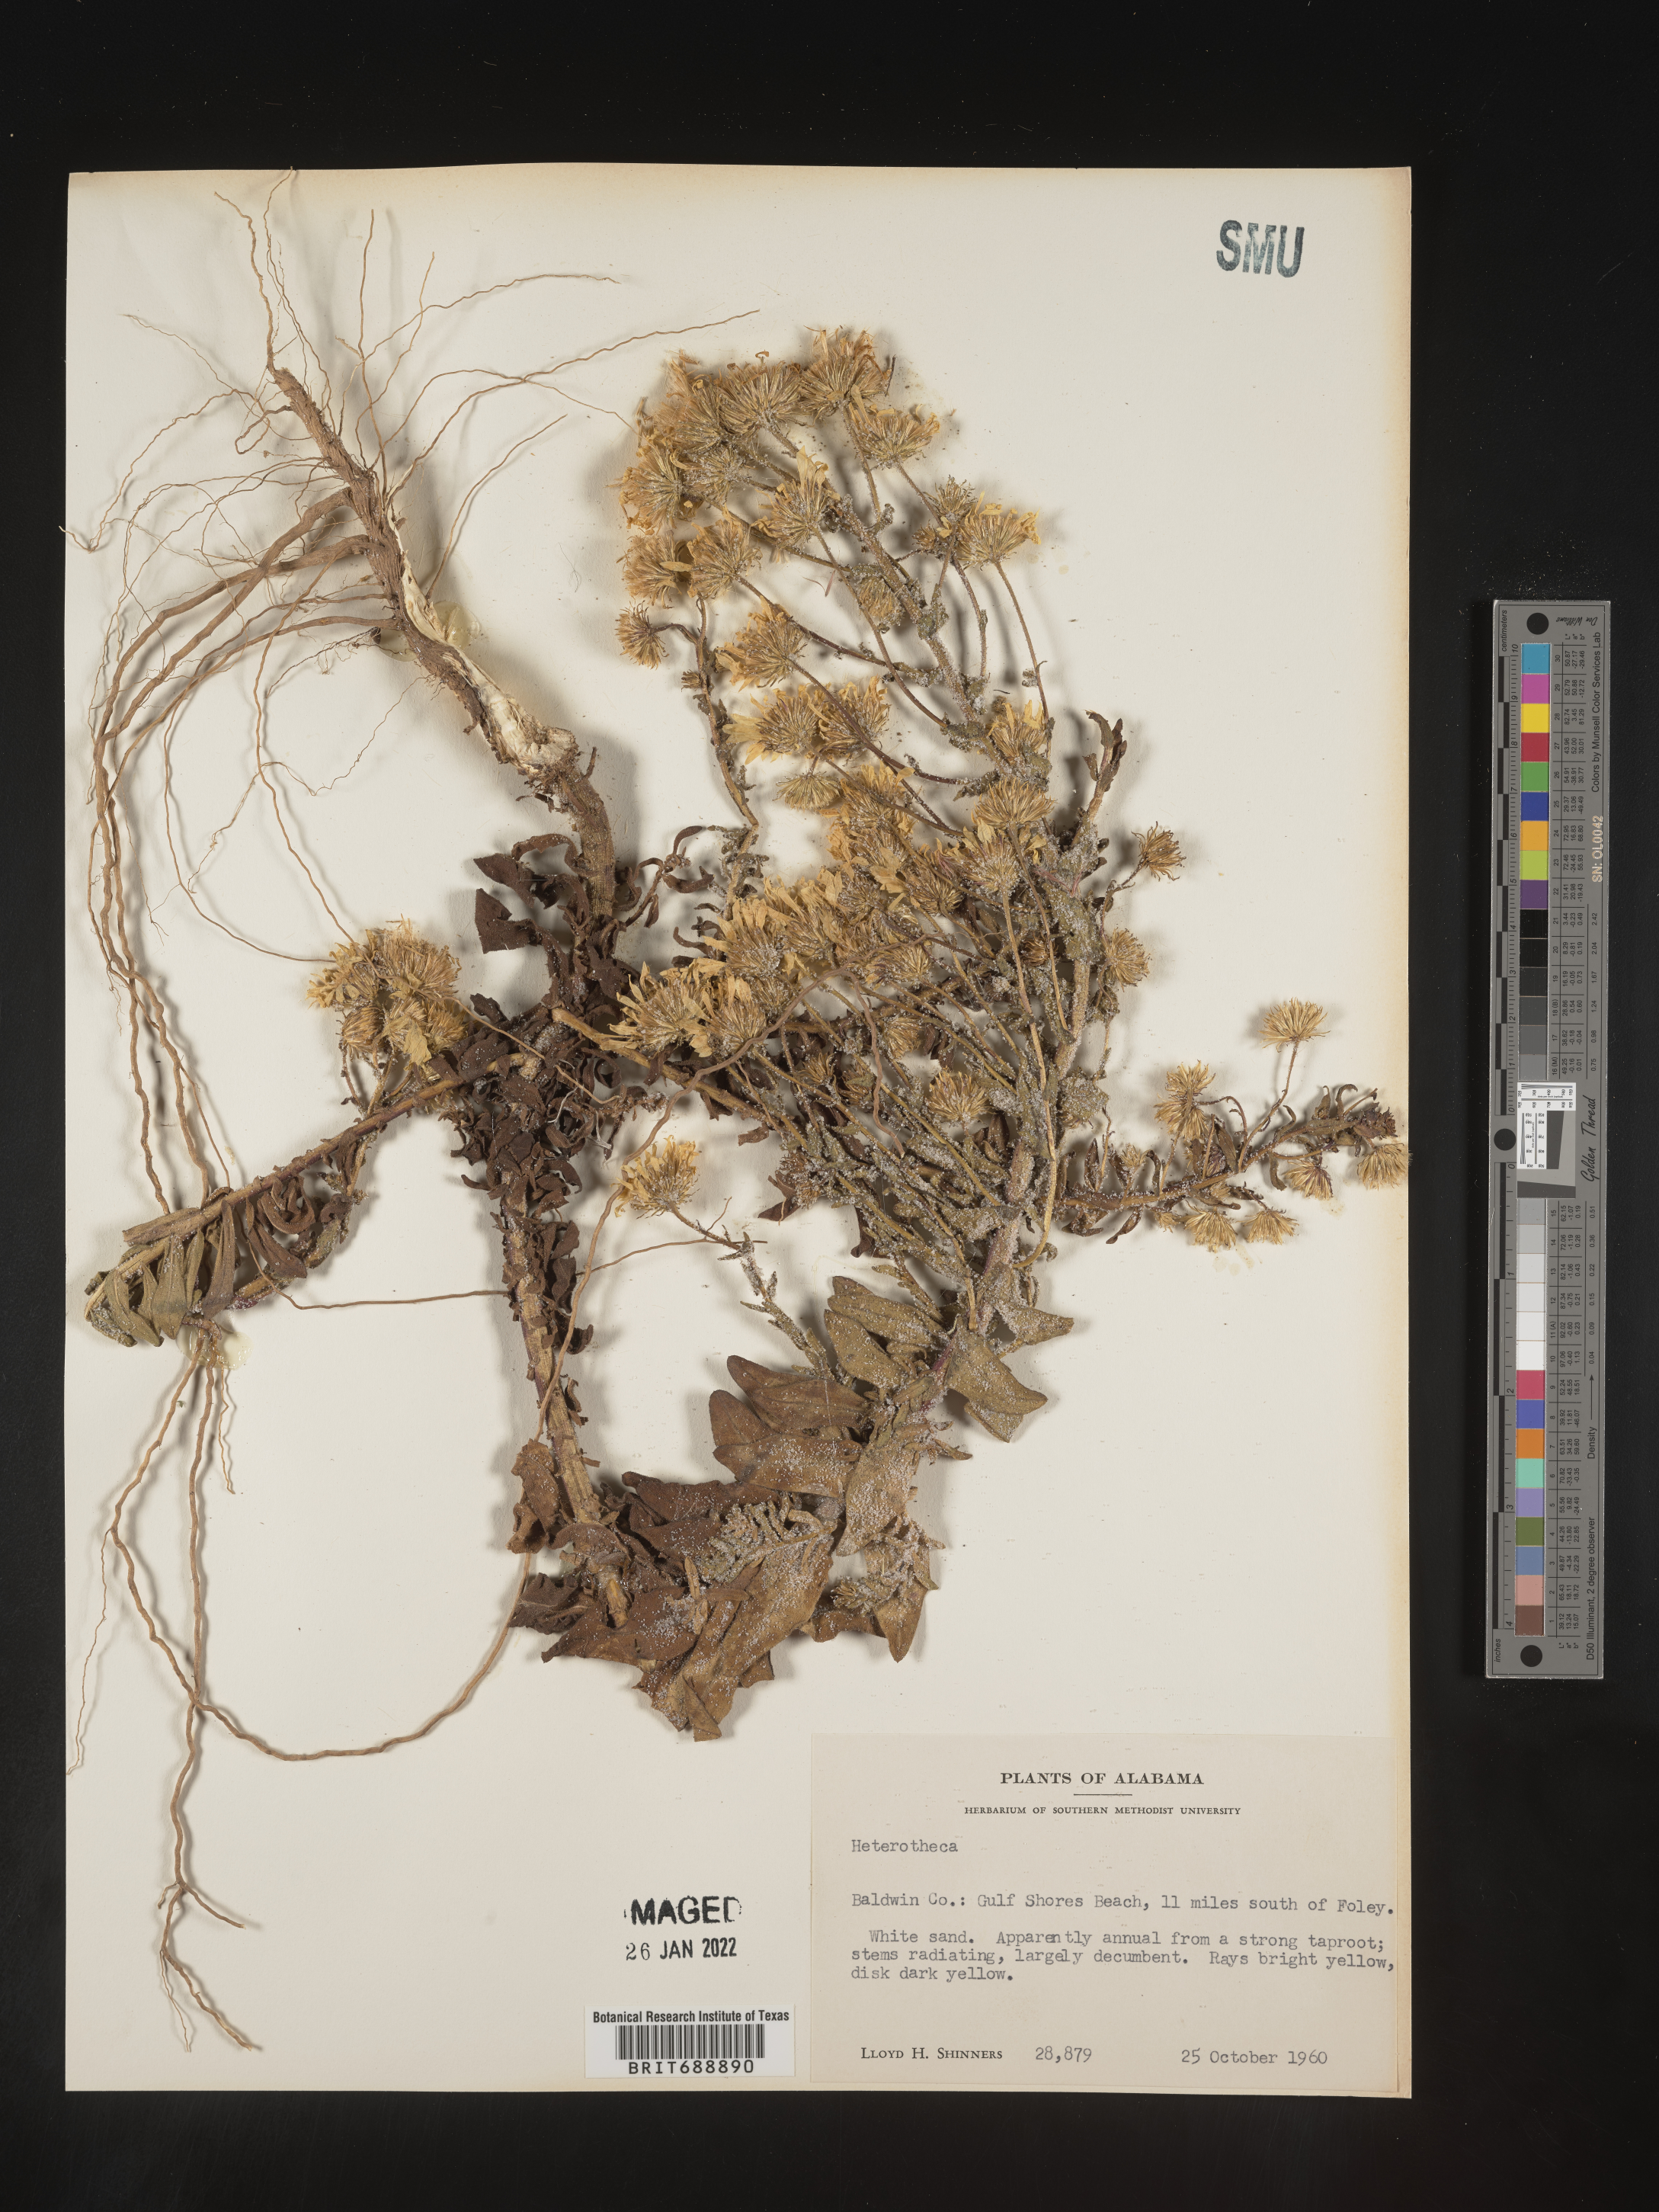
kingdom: Plantae
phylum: Tracheophyta
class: Magnoliopsida
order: Asterales
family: Asteraceae
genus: Chrysopsis
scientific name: Chrysopsis
